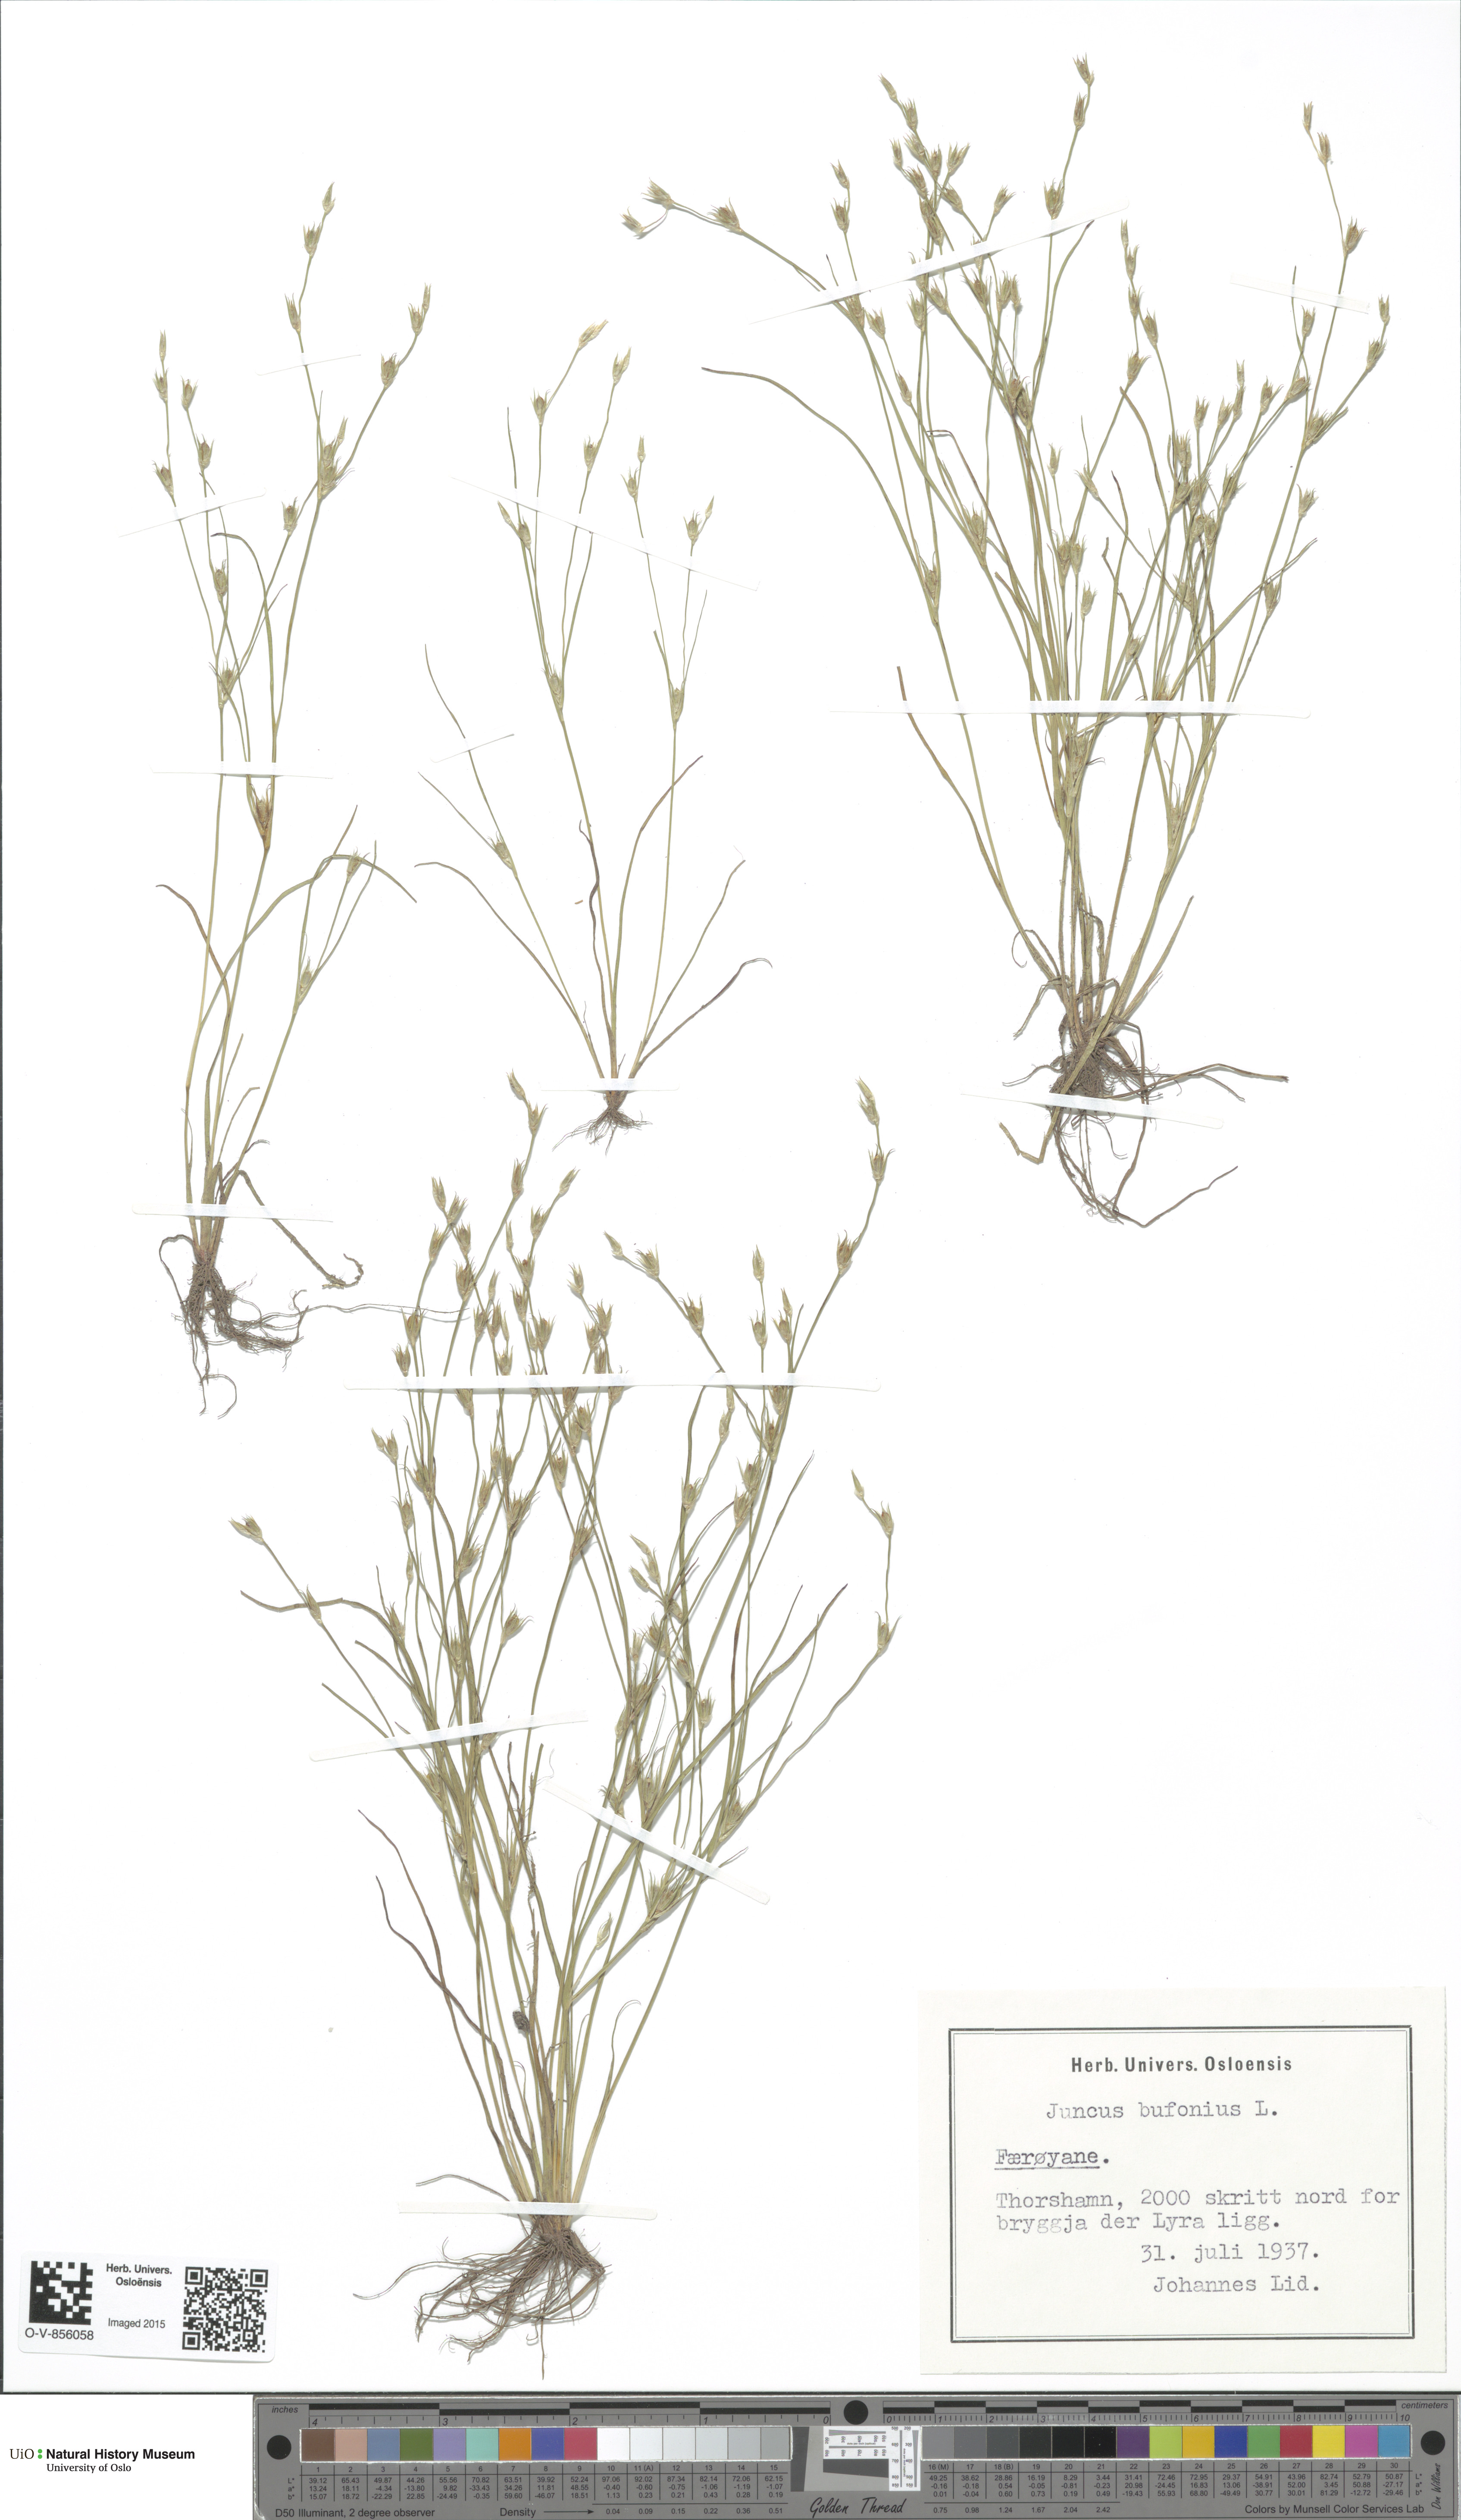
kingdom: Plantae
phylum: Tracheophyta
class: Liliopsida
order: Poales
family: Juncaceae
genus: Juncus
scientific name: Juncus bufonius
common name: Toad rush
